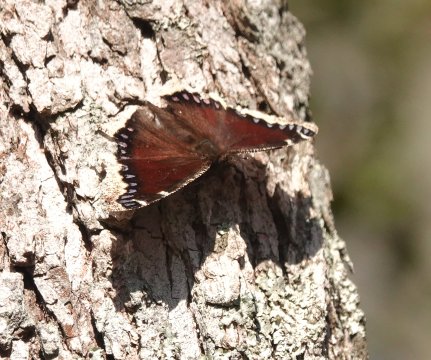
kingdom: Animalia
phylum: Arthropoda
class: Insecta
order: Lepidoptera
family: Nymphalidae
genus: Nymphalis
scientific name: Nymphalis antiopa
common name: Mourning Cloak
